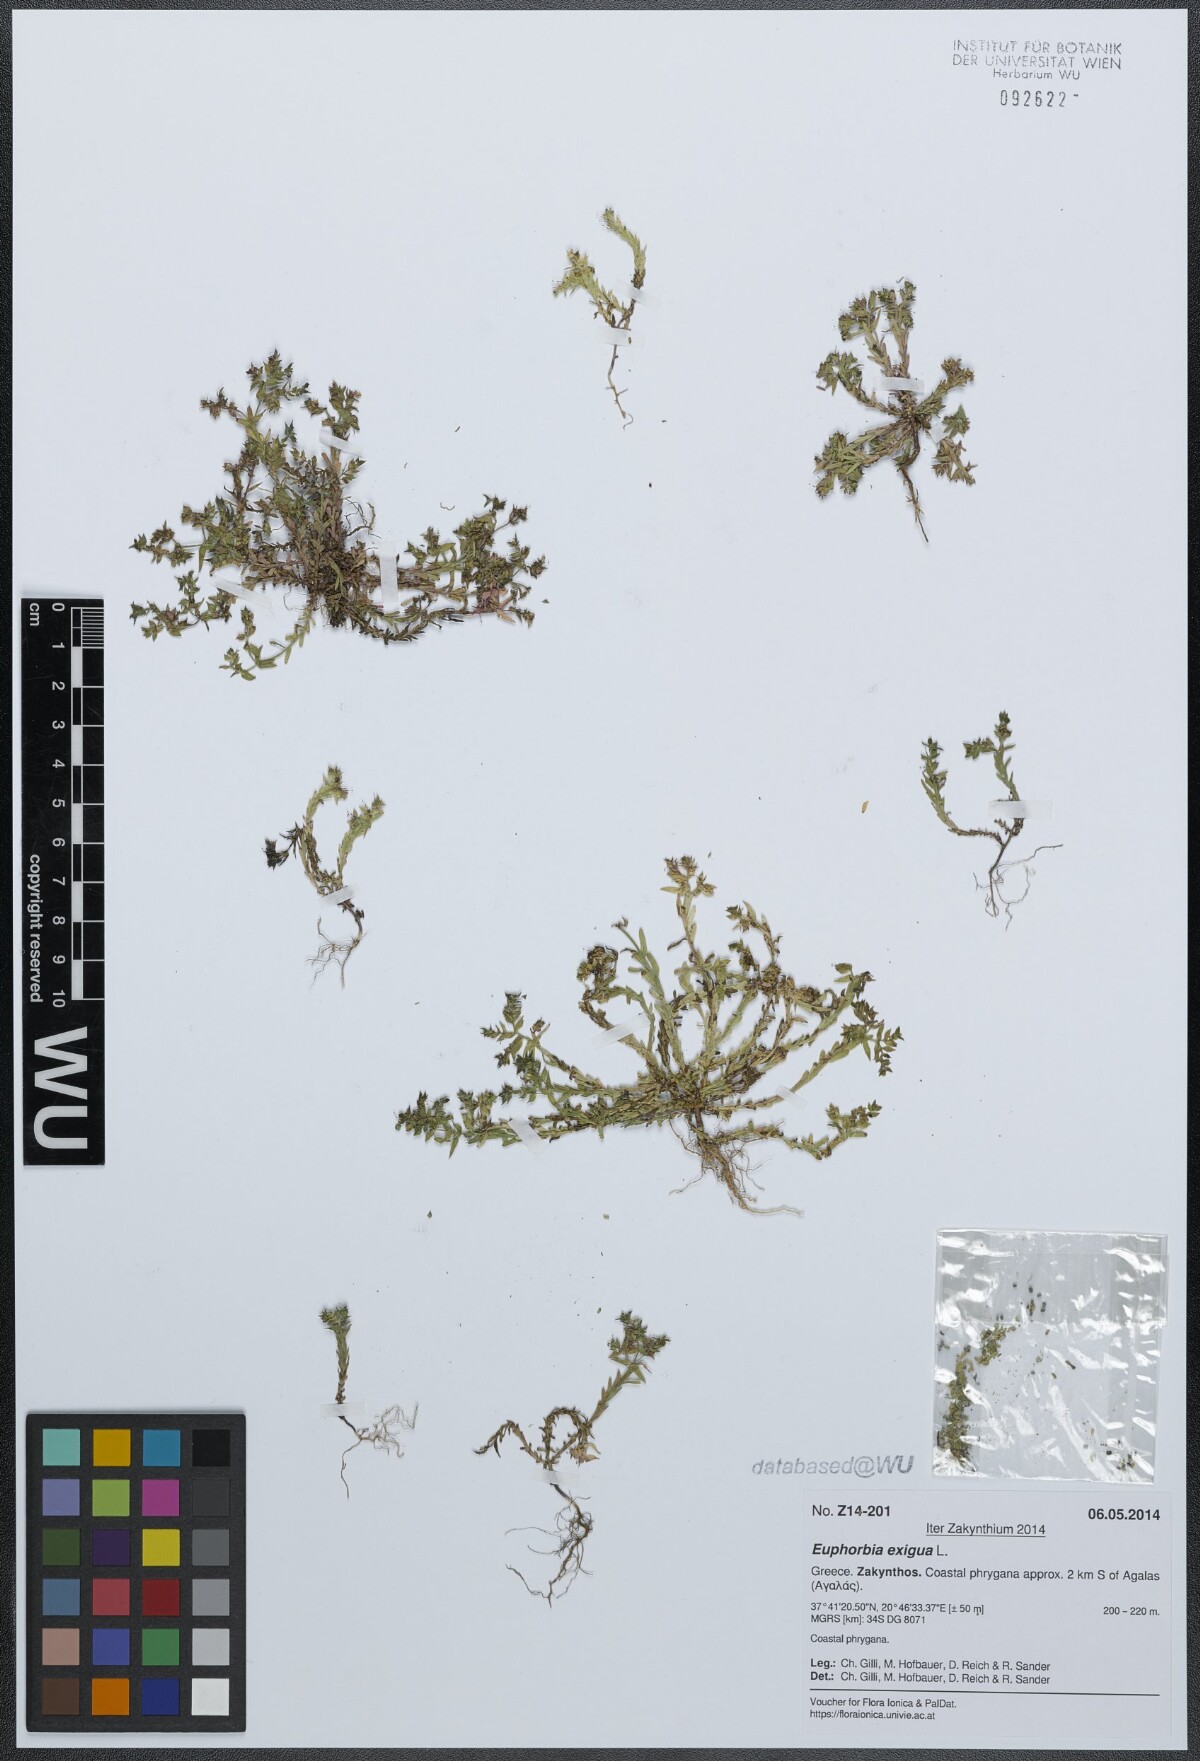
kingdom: Plantae
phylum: Tracheophyta
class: Magnoliopsida
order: Malpighiales
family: Euphorbiaceae
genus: Euphorbia
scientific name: Euphorbia exigua
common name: Dwarf spurge
